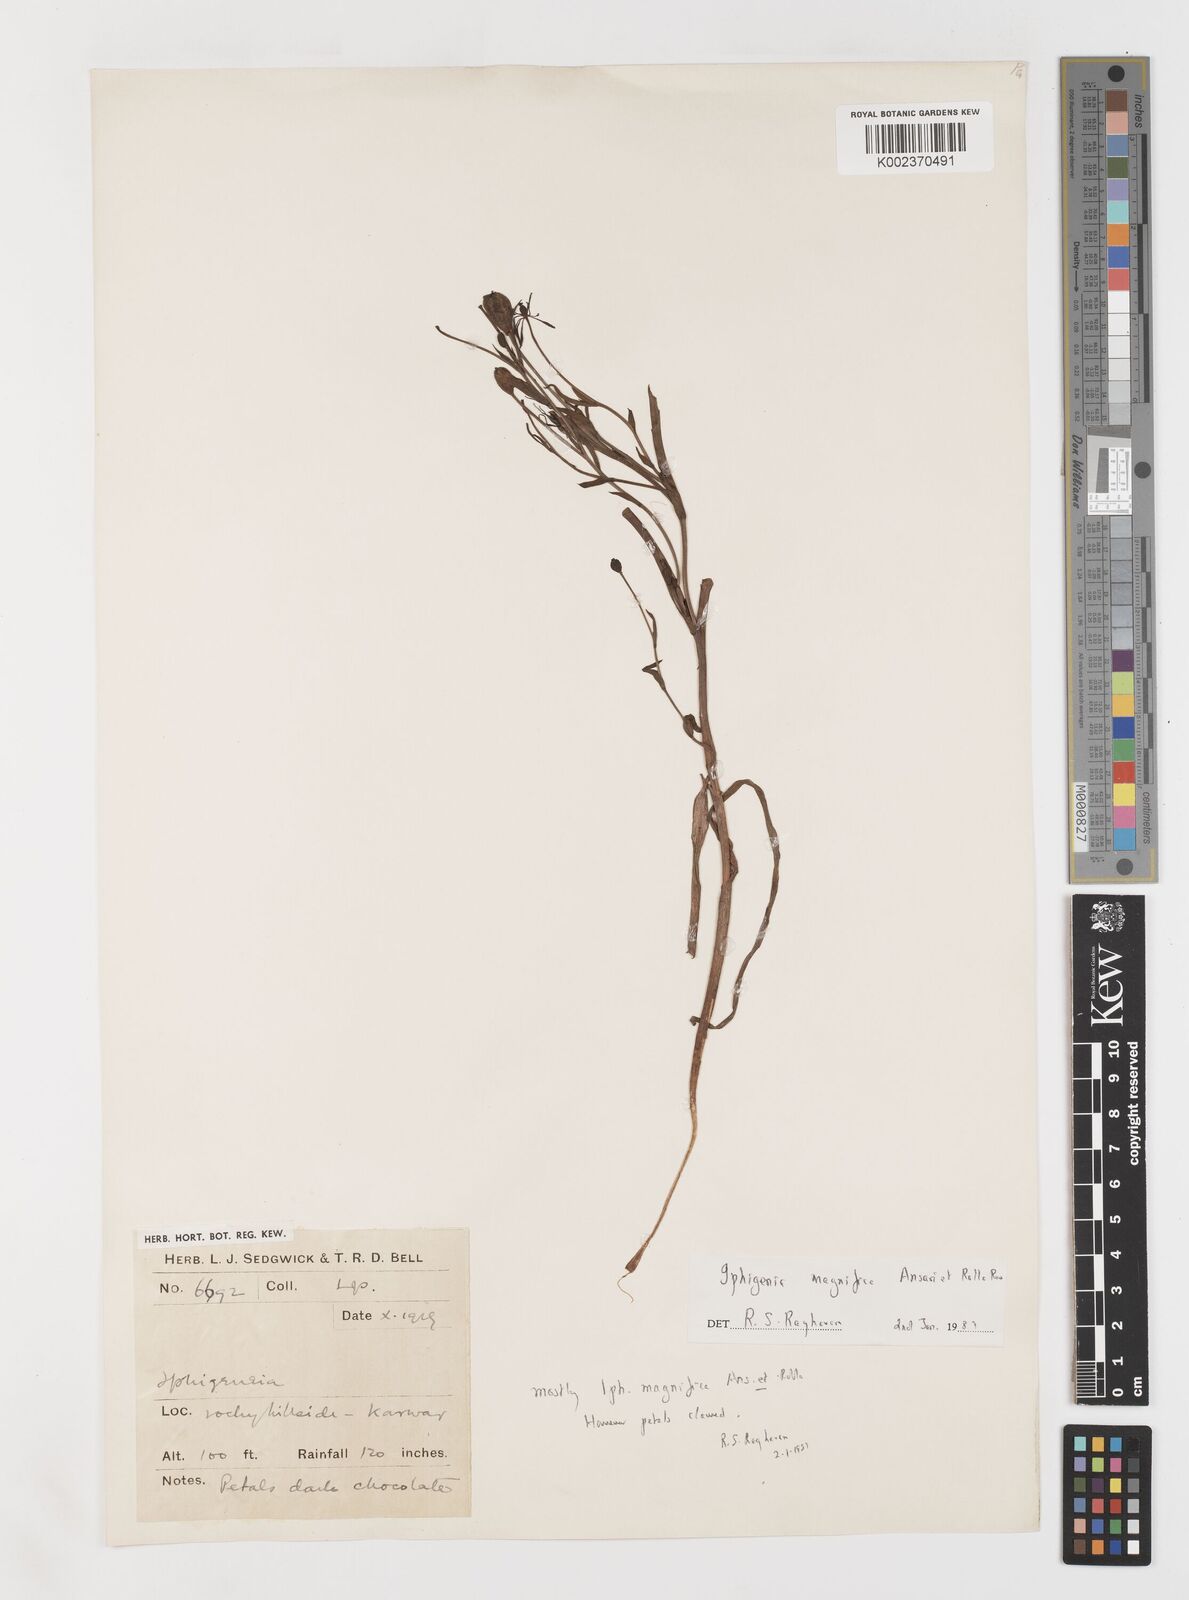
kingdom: Plantae
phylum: Tracheophyta
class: Liliopsida
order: Liliales
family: Colchicaceae
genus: Iphigenia
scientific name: Iphigenia magnifica
